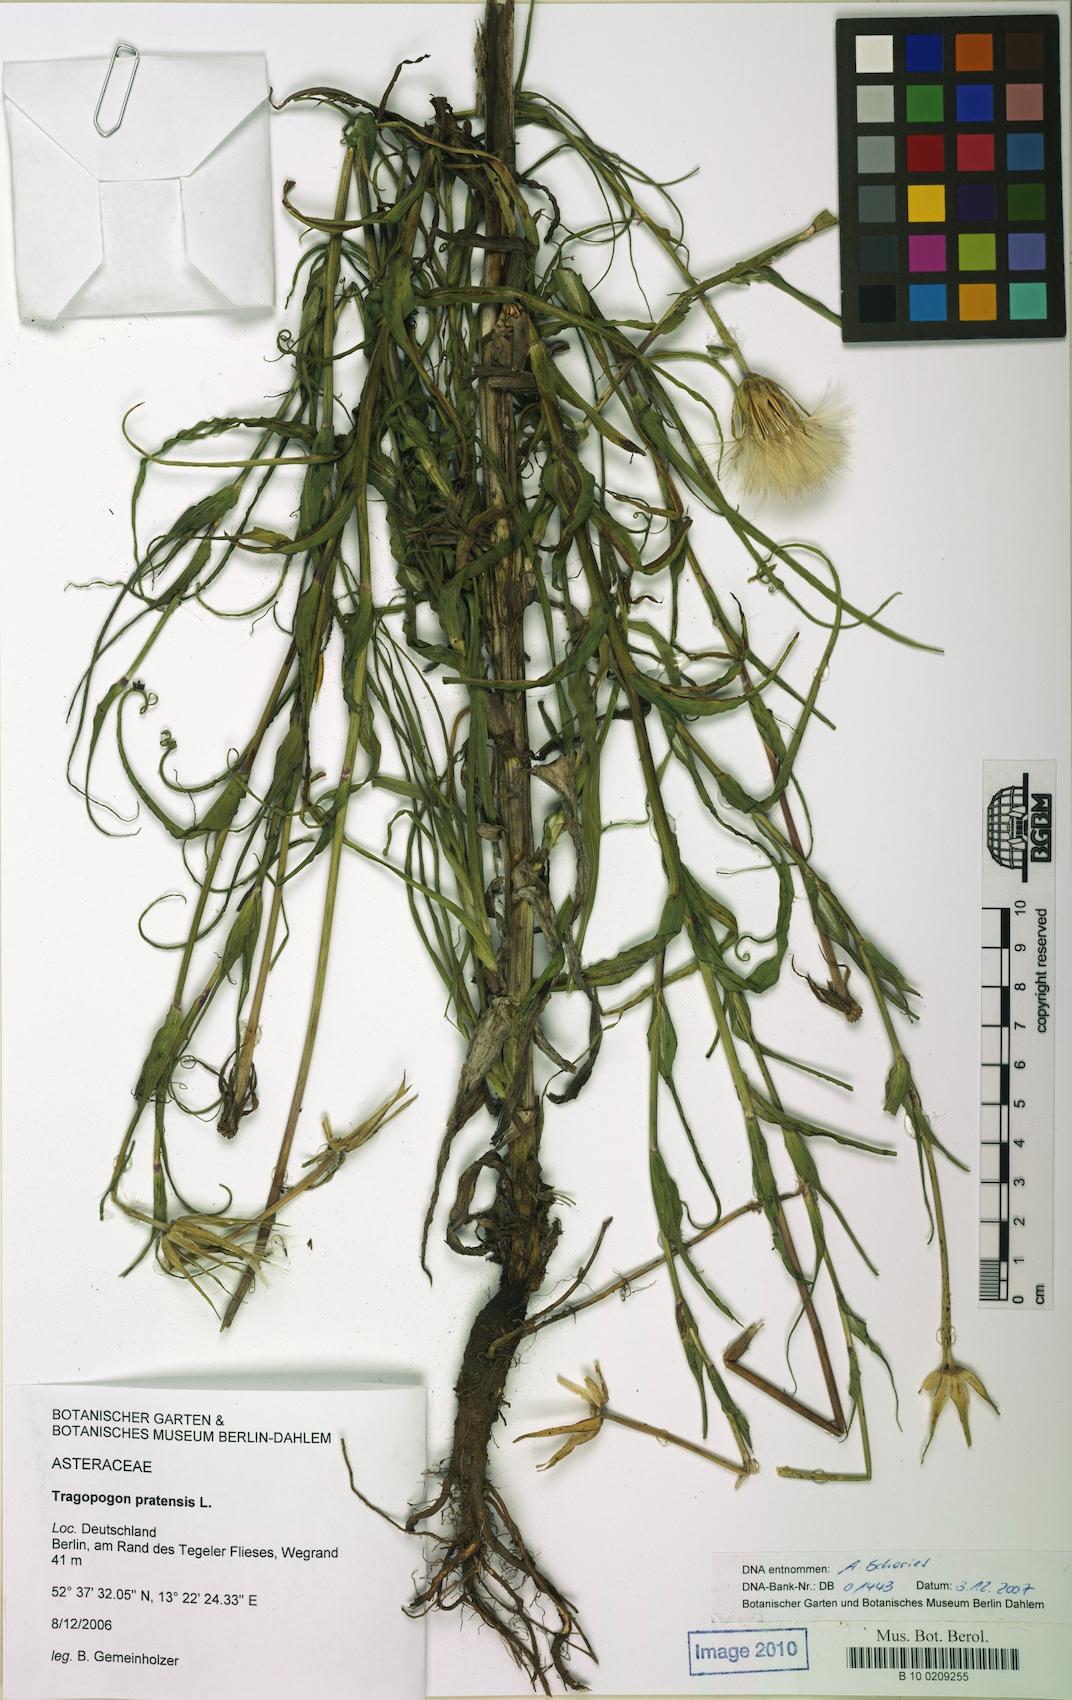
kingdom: Plantae
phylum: Tracheophyta
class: Magnoliopsida
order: Asterales
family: Asteraceae
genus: Tragopogon
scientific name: Tragopogon pratensis
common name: Goat's-beard
